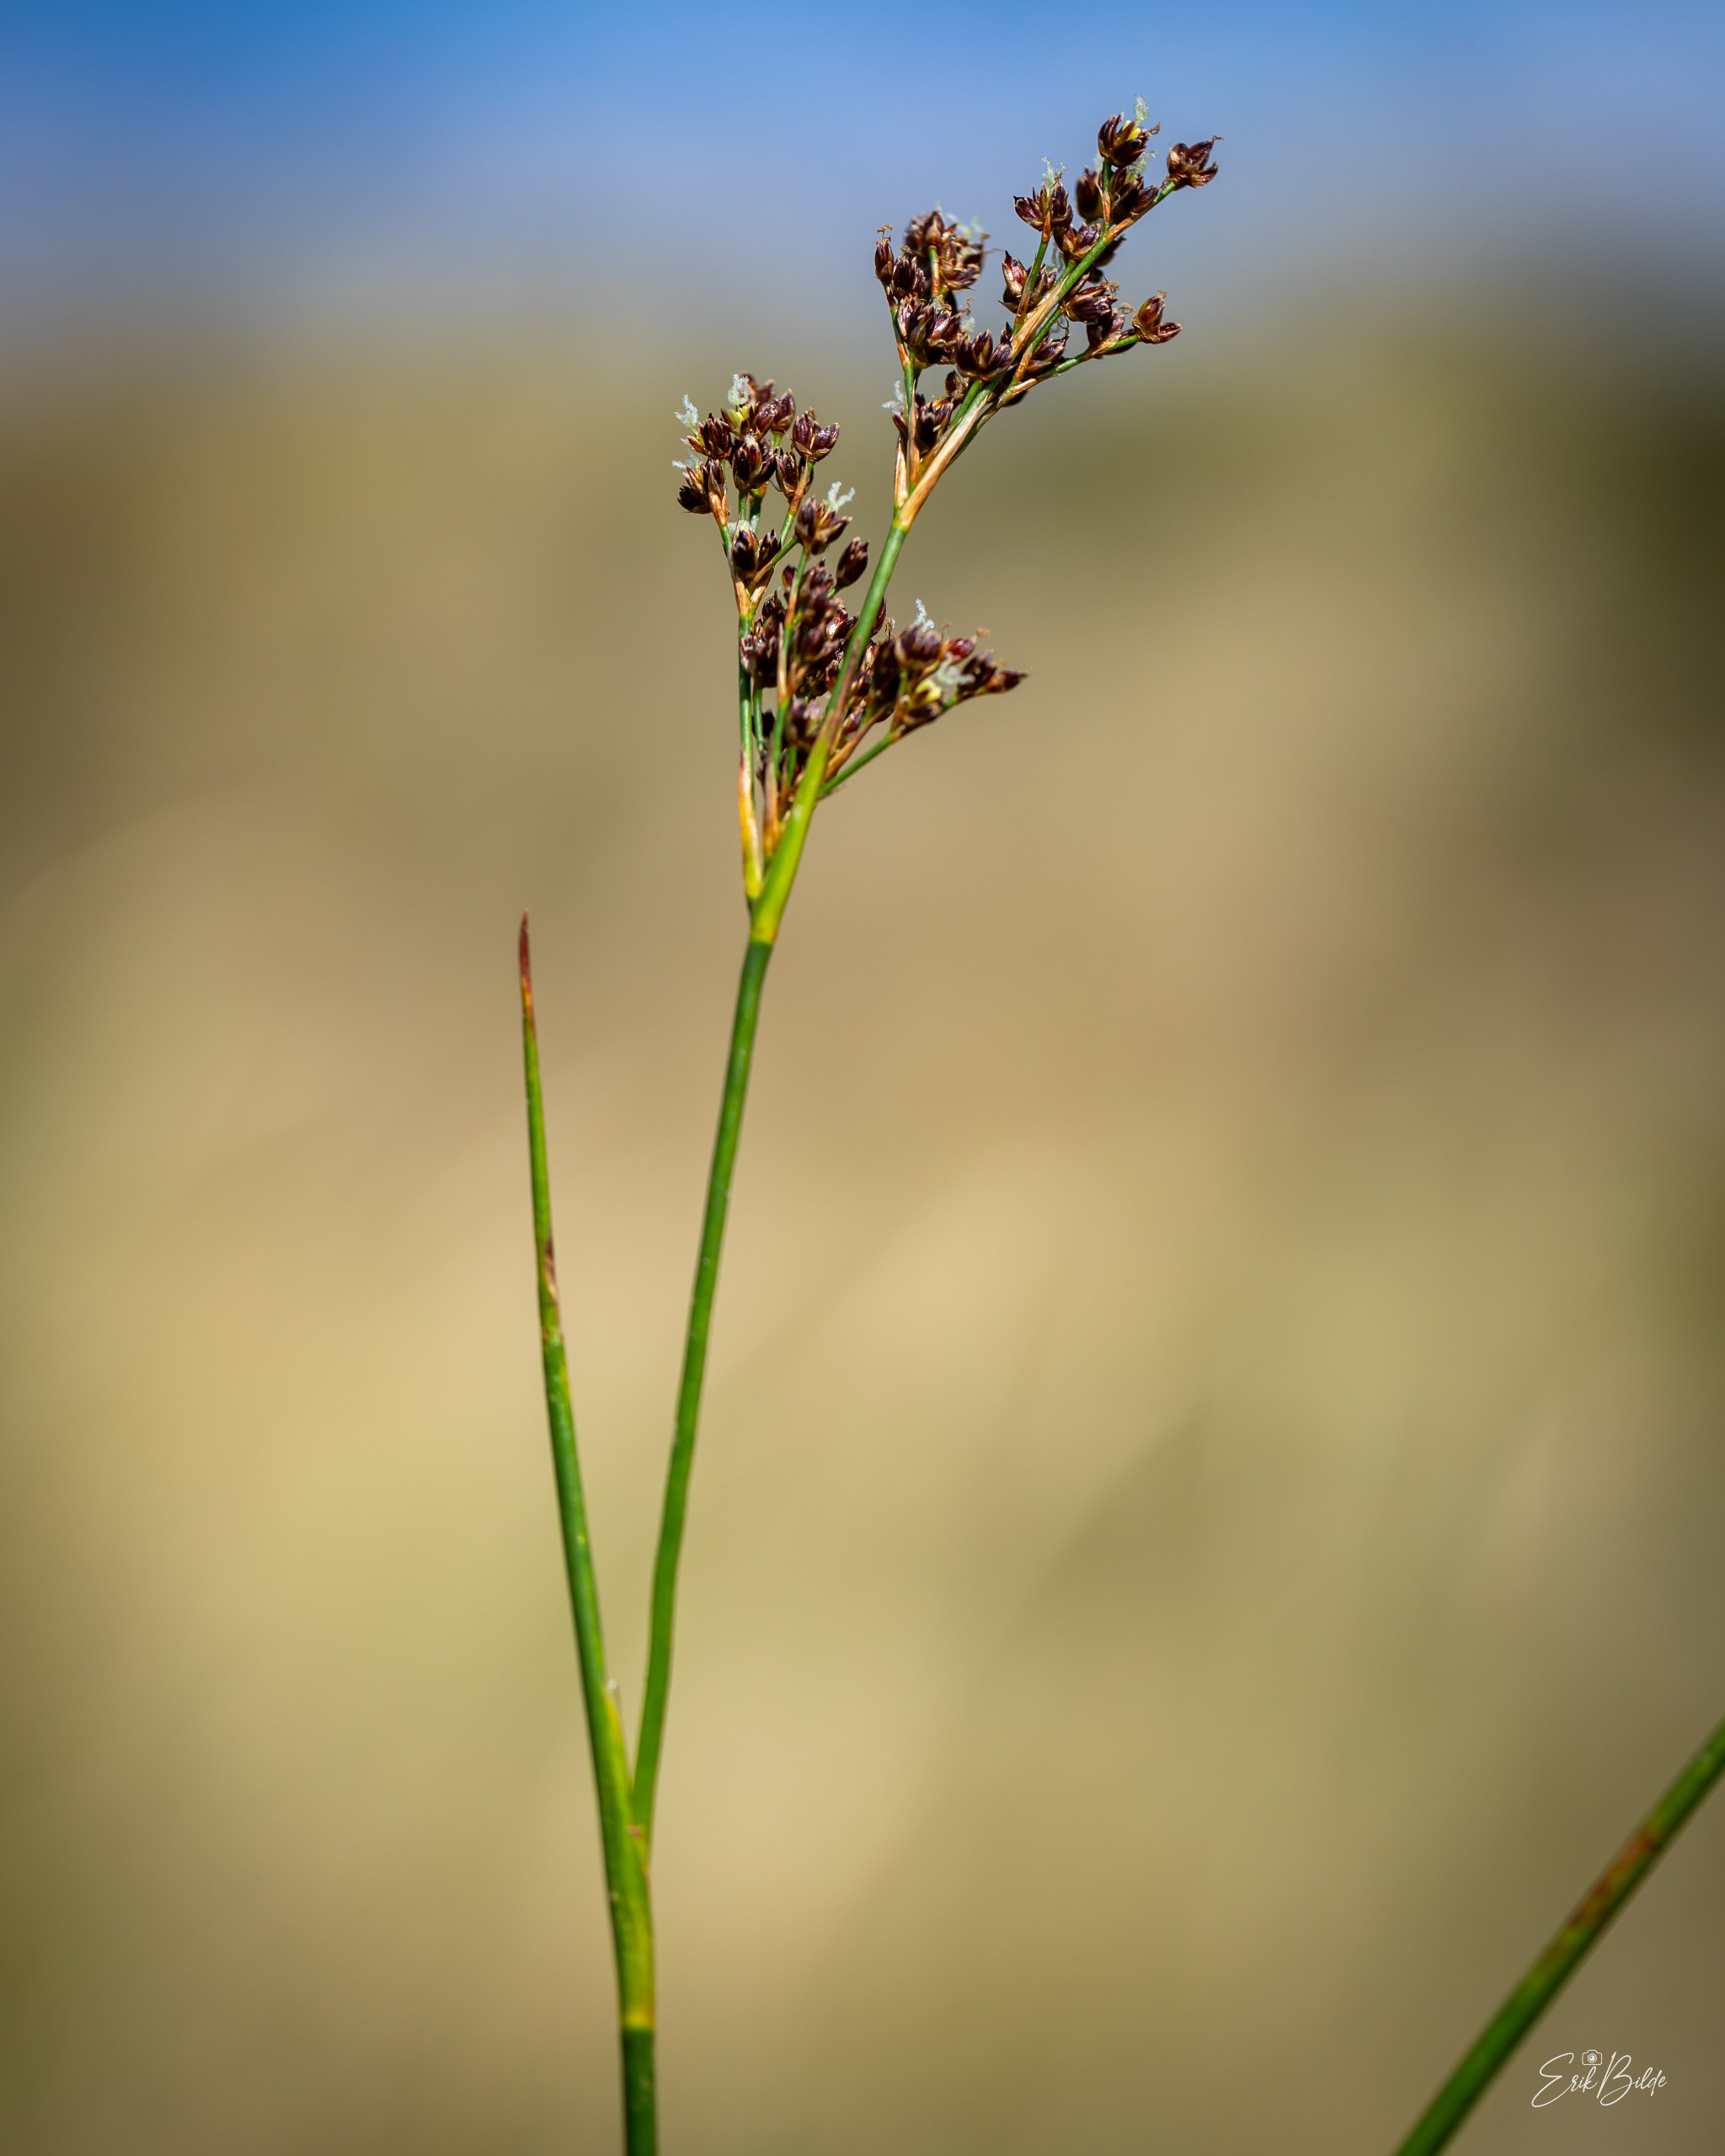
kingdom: Plantae
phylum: Tracheophyta
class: Liliopsida
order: Poales
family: Juncaceae
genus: Juncus
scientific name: Juncus articulatus
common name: Glanskapslet siv
